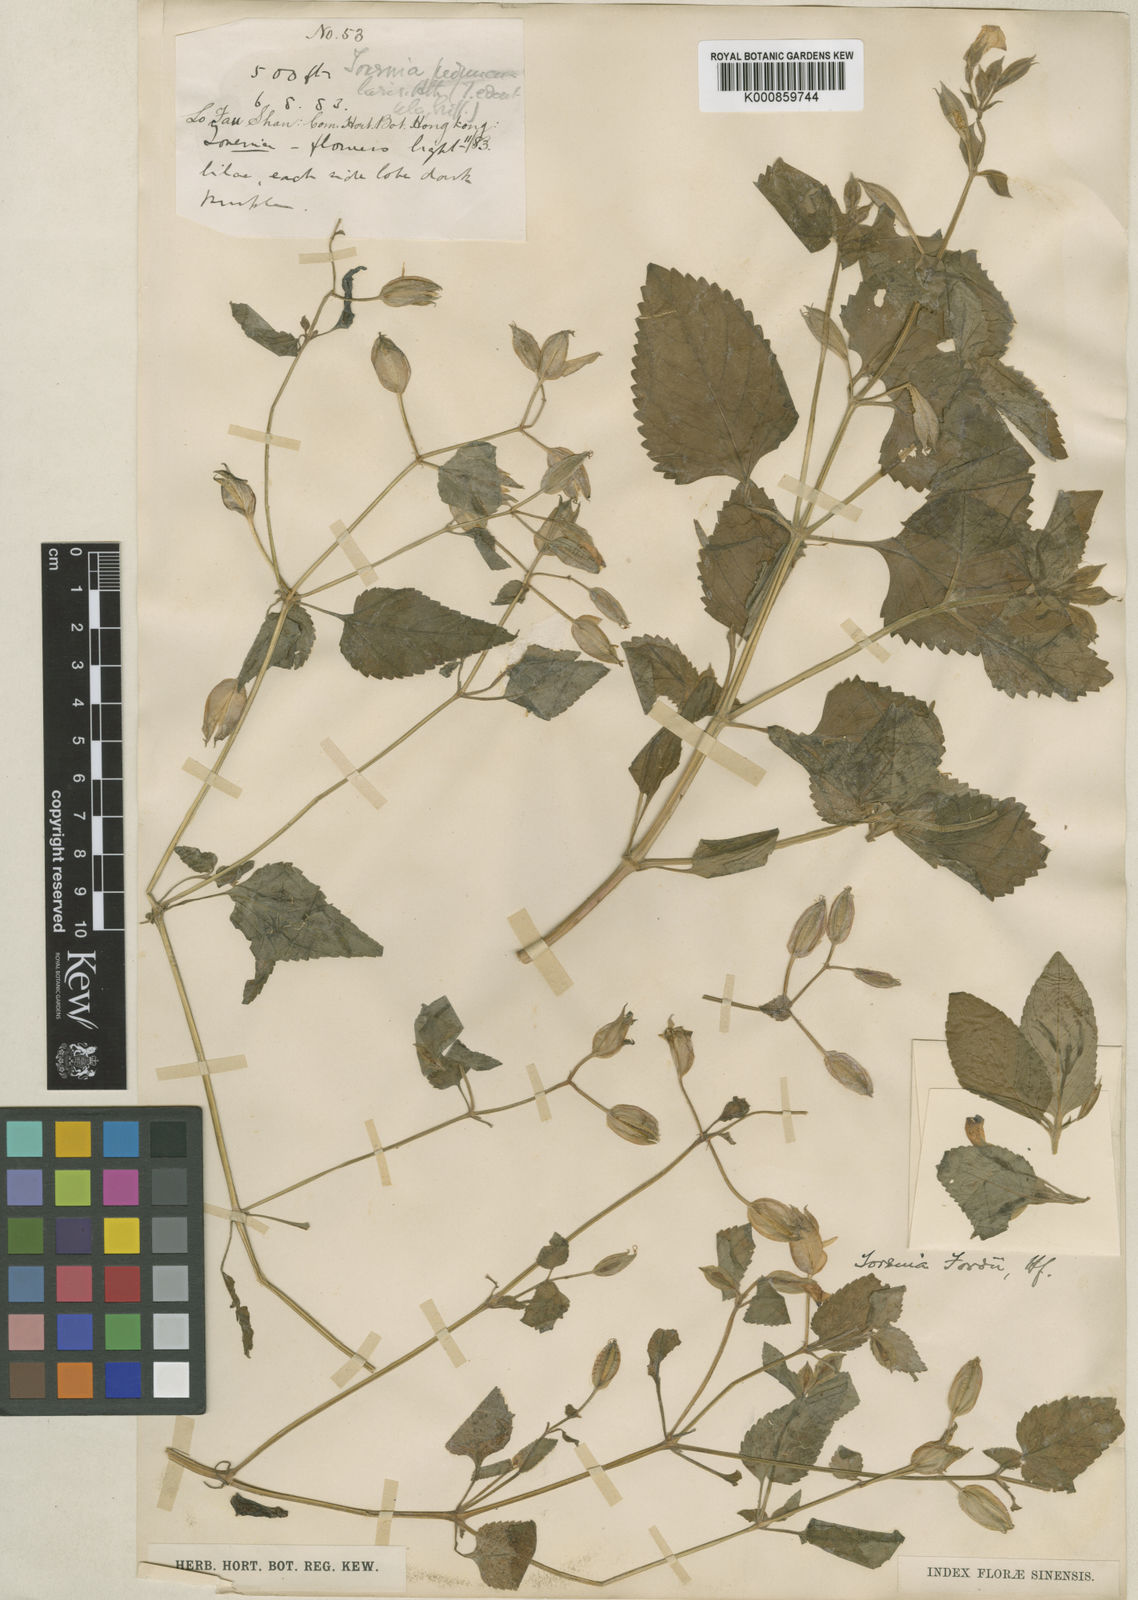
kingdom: Plantae
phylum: Tracheophyta
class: Magnoliopsida
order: Lamiales
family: Linderniaceae
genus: Torenia
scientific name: Torenia fordii
